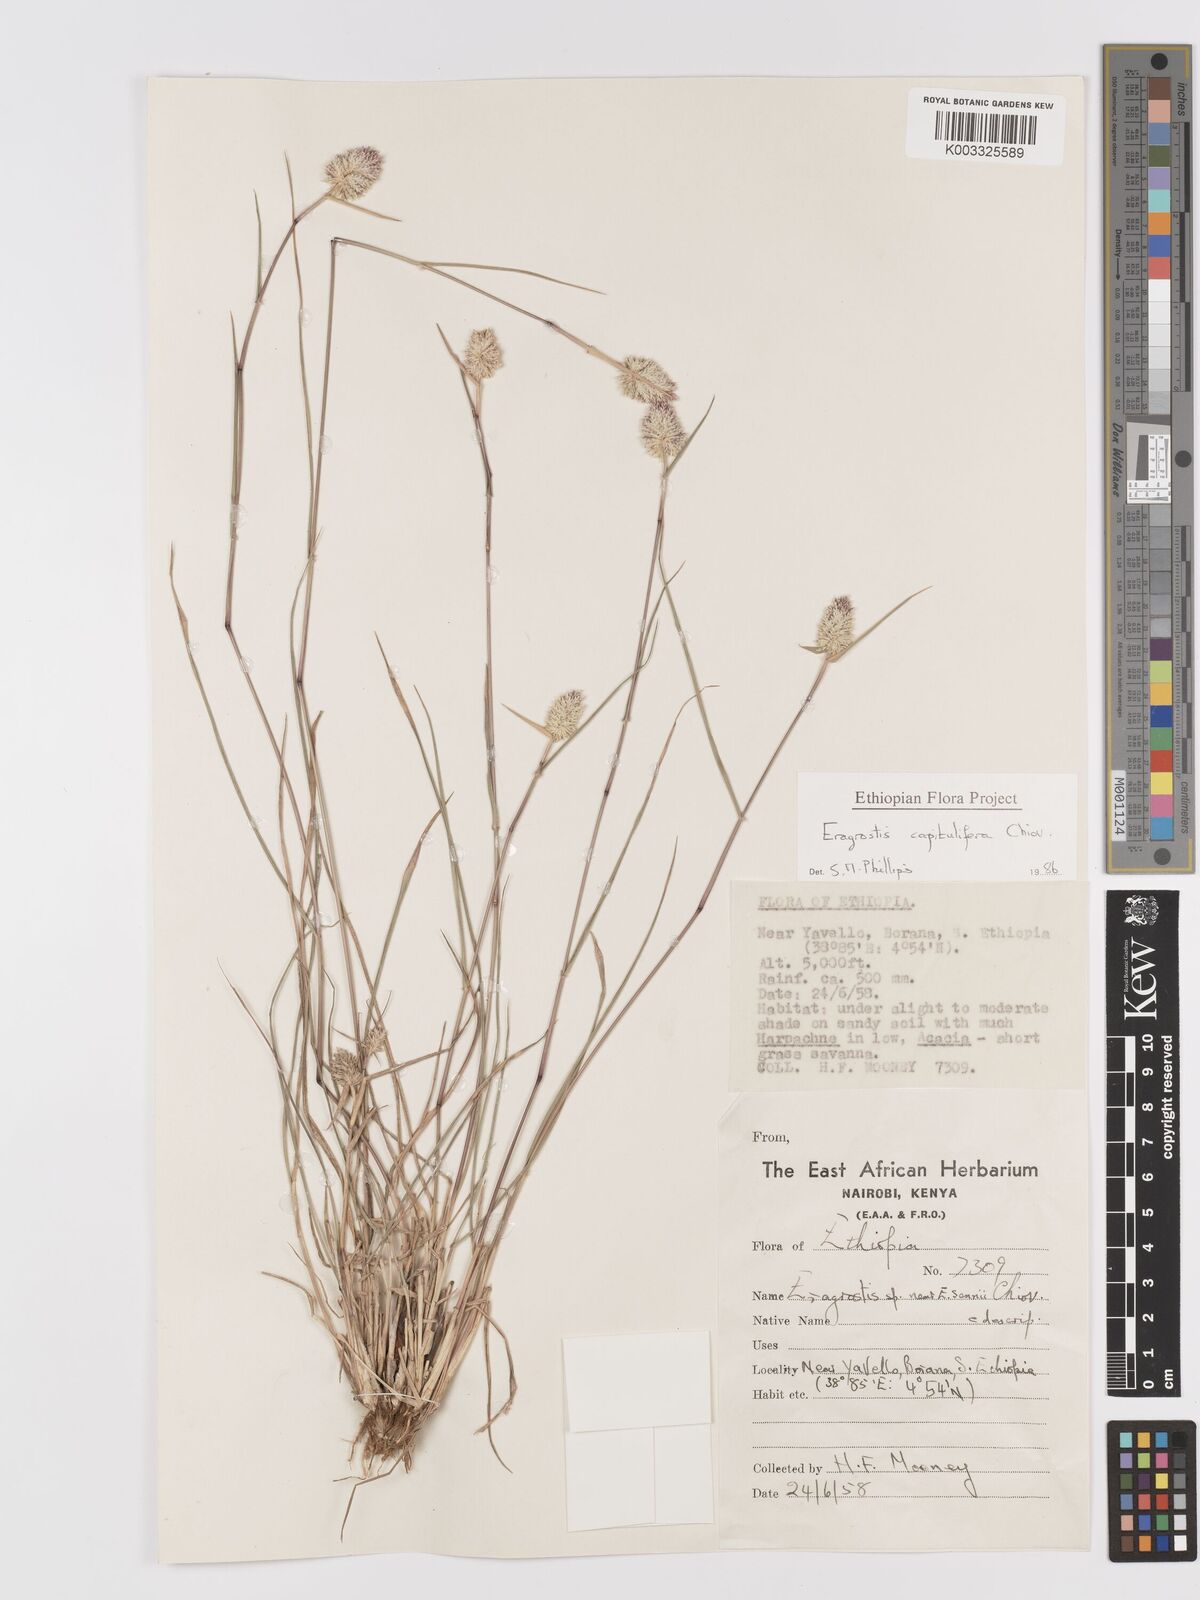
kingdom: Plantae
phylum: Tracheophyta
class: Liliopsida
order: Poales
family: Poaceae
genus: Eragrostis
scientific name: Eragrostis capitulifera
